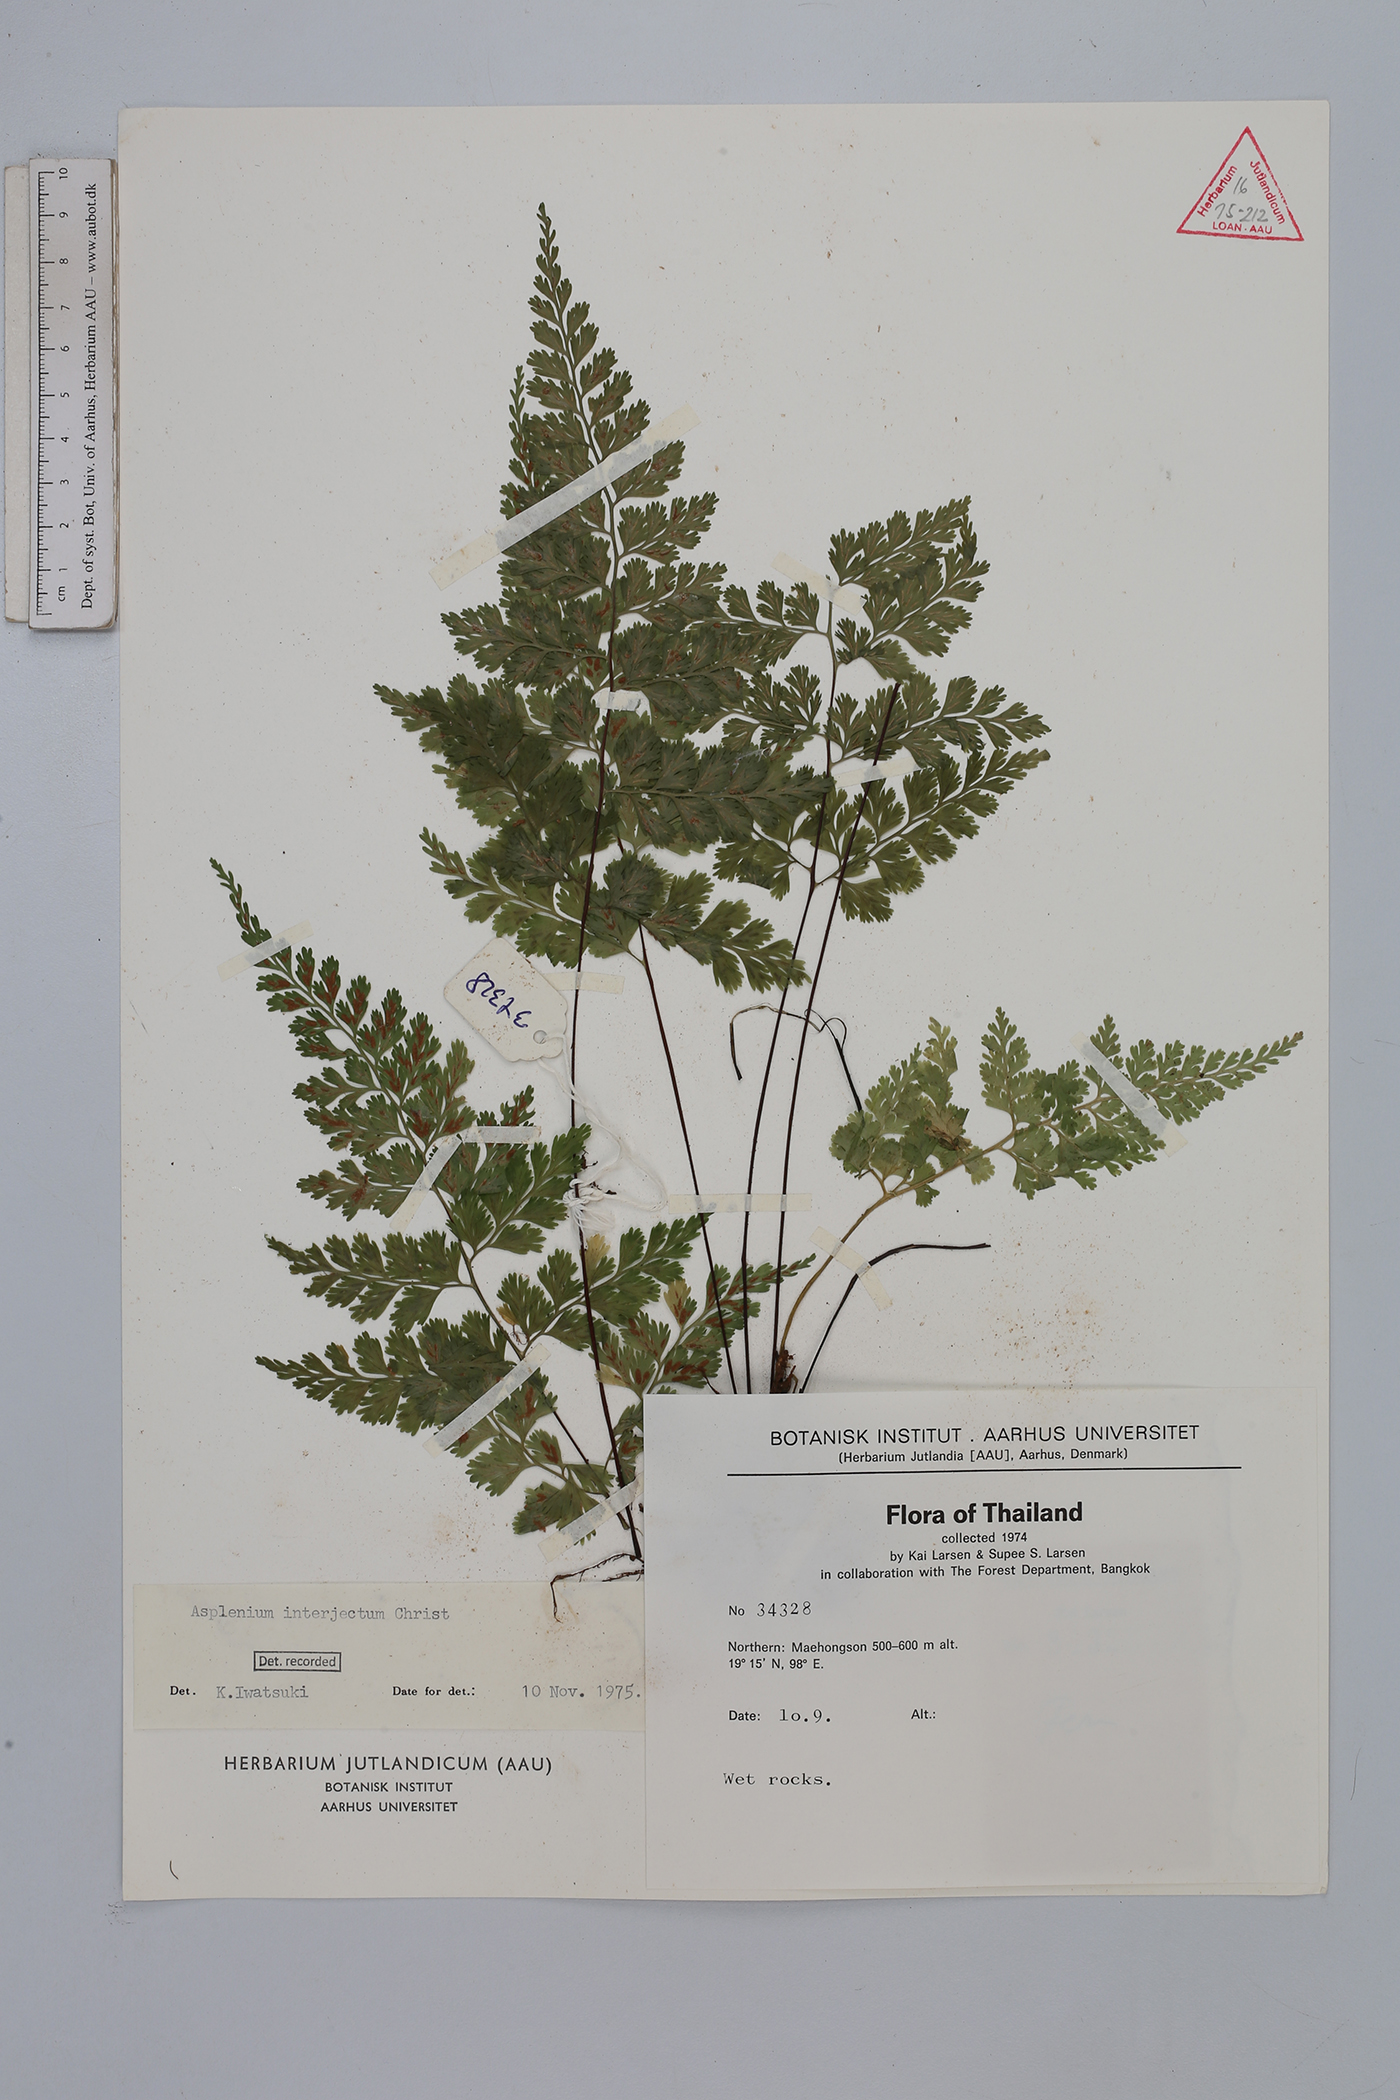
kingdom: Plantae
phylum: Tracheophyta
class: Polypodiopsida
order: Polypodiales
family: Aspleniaceae
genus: Asplenium
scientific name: Asplenium interjectum
